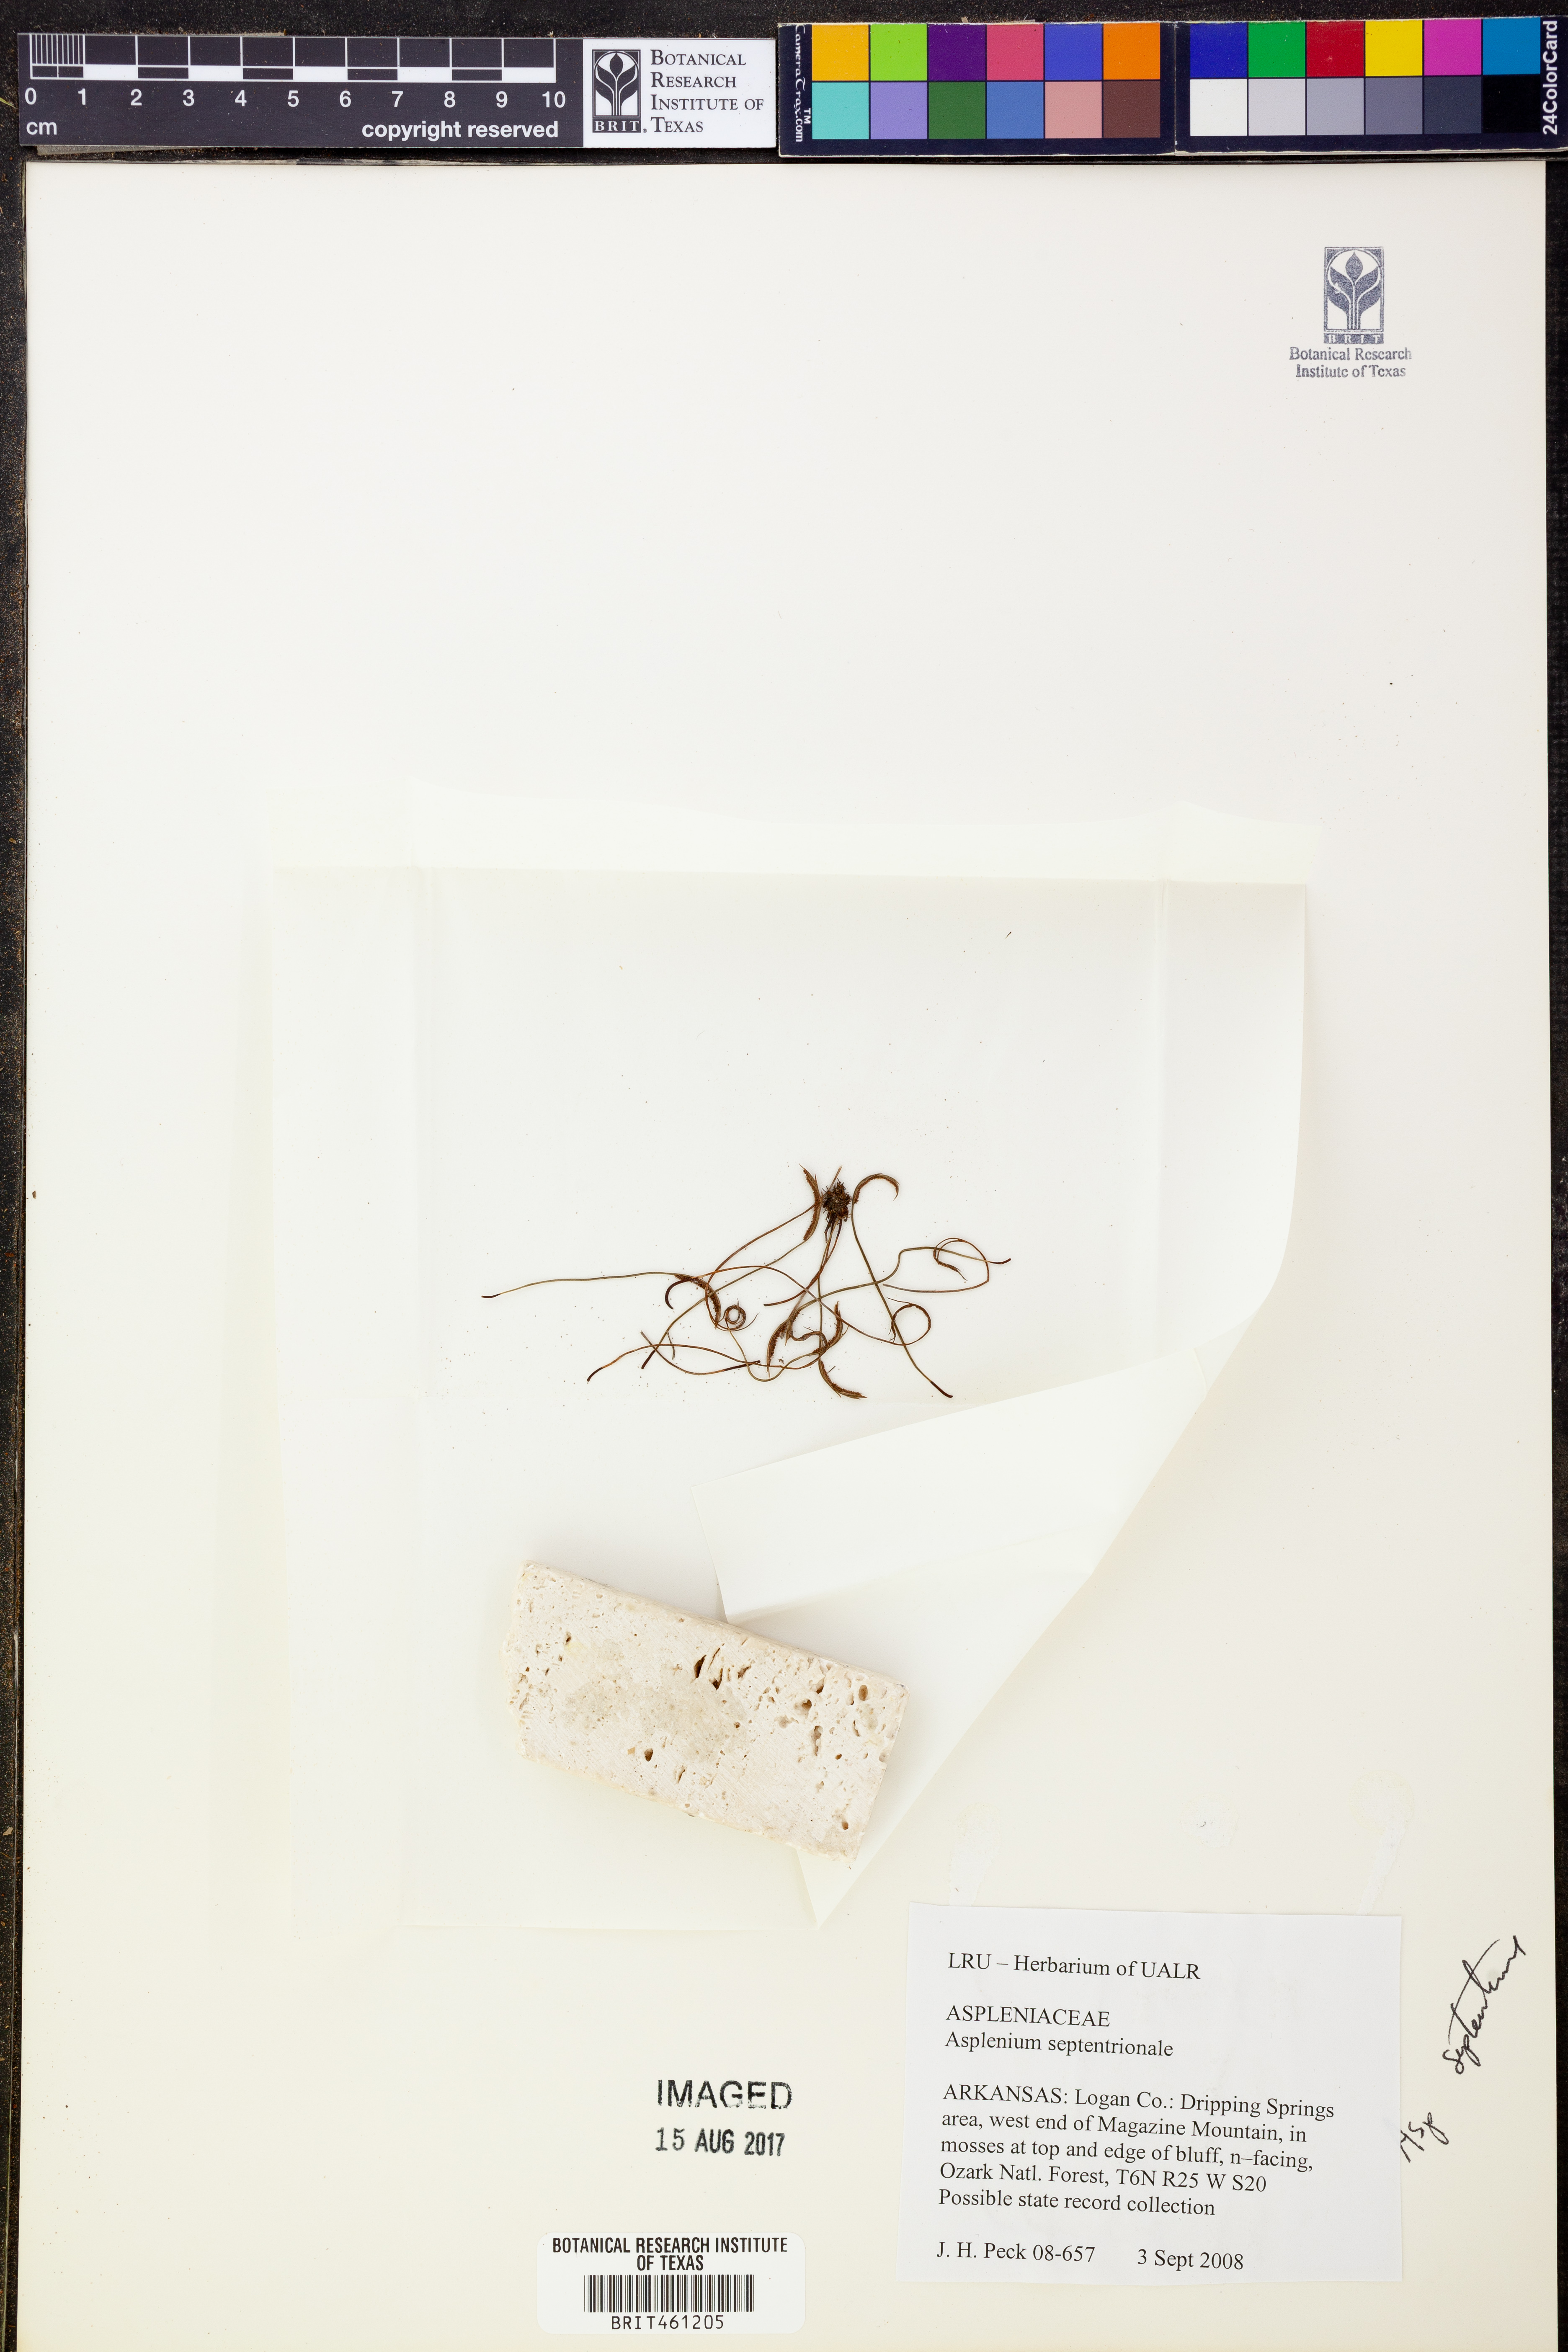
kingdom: Plantae
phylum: Tracheophyta
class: Polypodiopsida
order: Polypodiales
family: Aspleniaceae
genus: Asplenium
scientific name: Asplenium septentrionale
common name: Forked spleenwort
